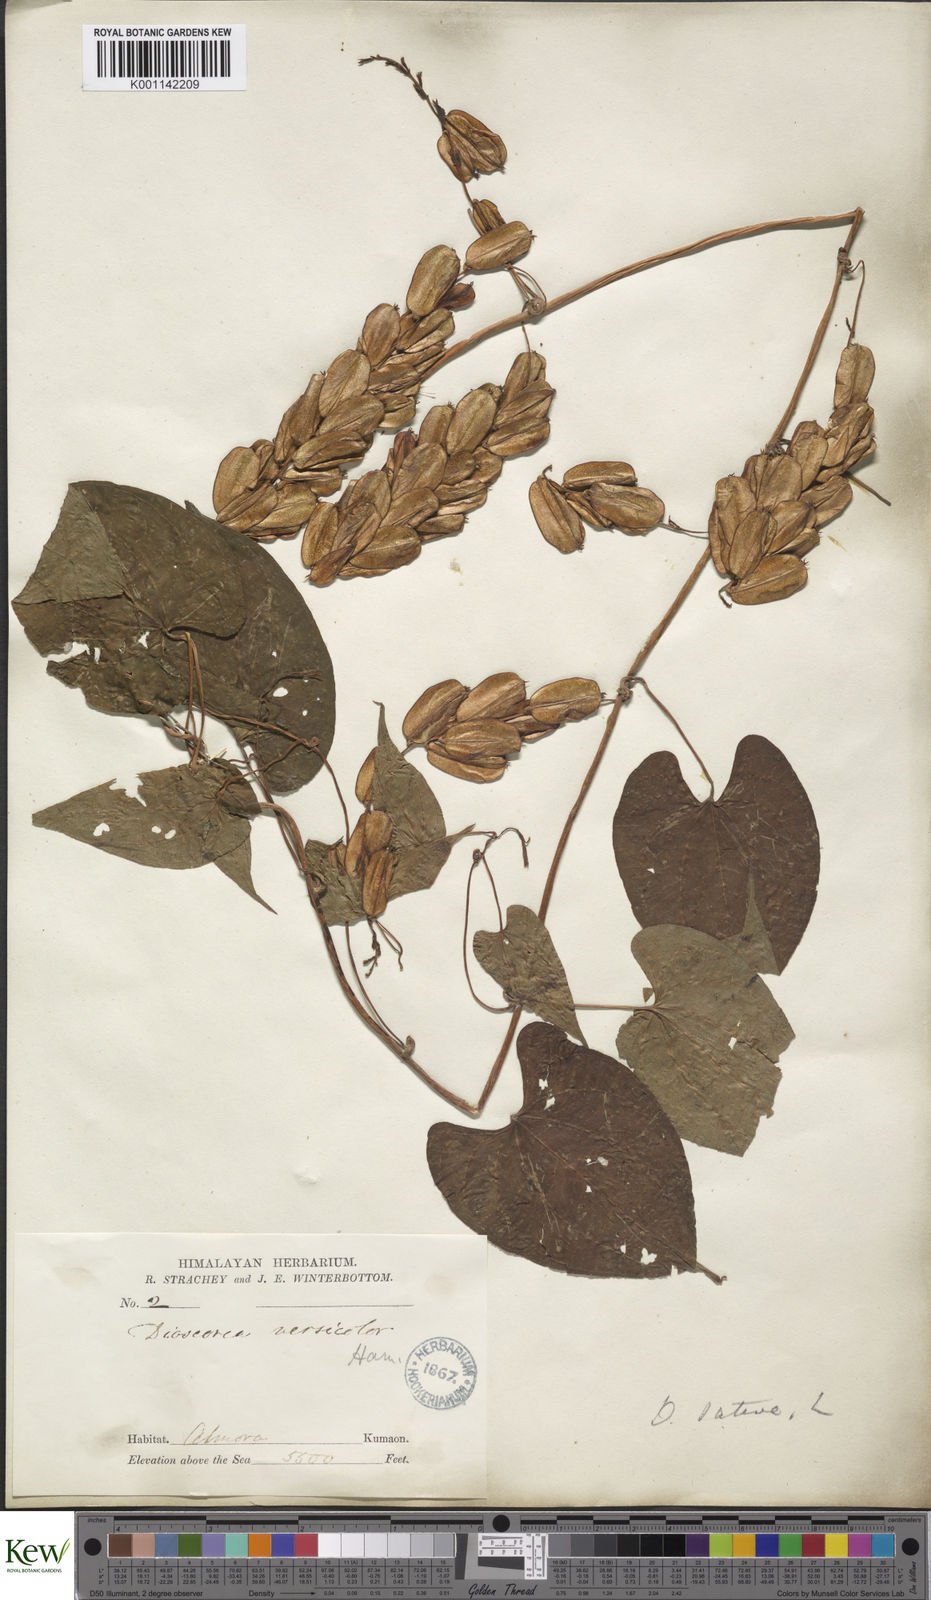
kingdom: Plantae
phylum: Tracheophyta
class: Liliopsida
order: Dioscoreales
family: Dioscoreaceae
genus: Dioscorea
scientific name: Dioscorea bulbifera
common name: Air yam
